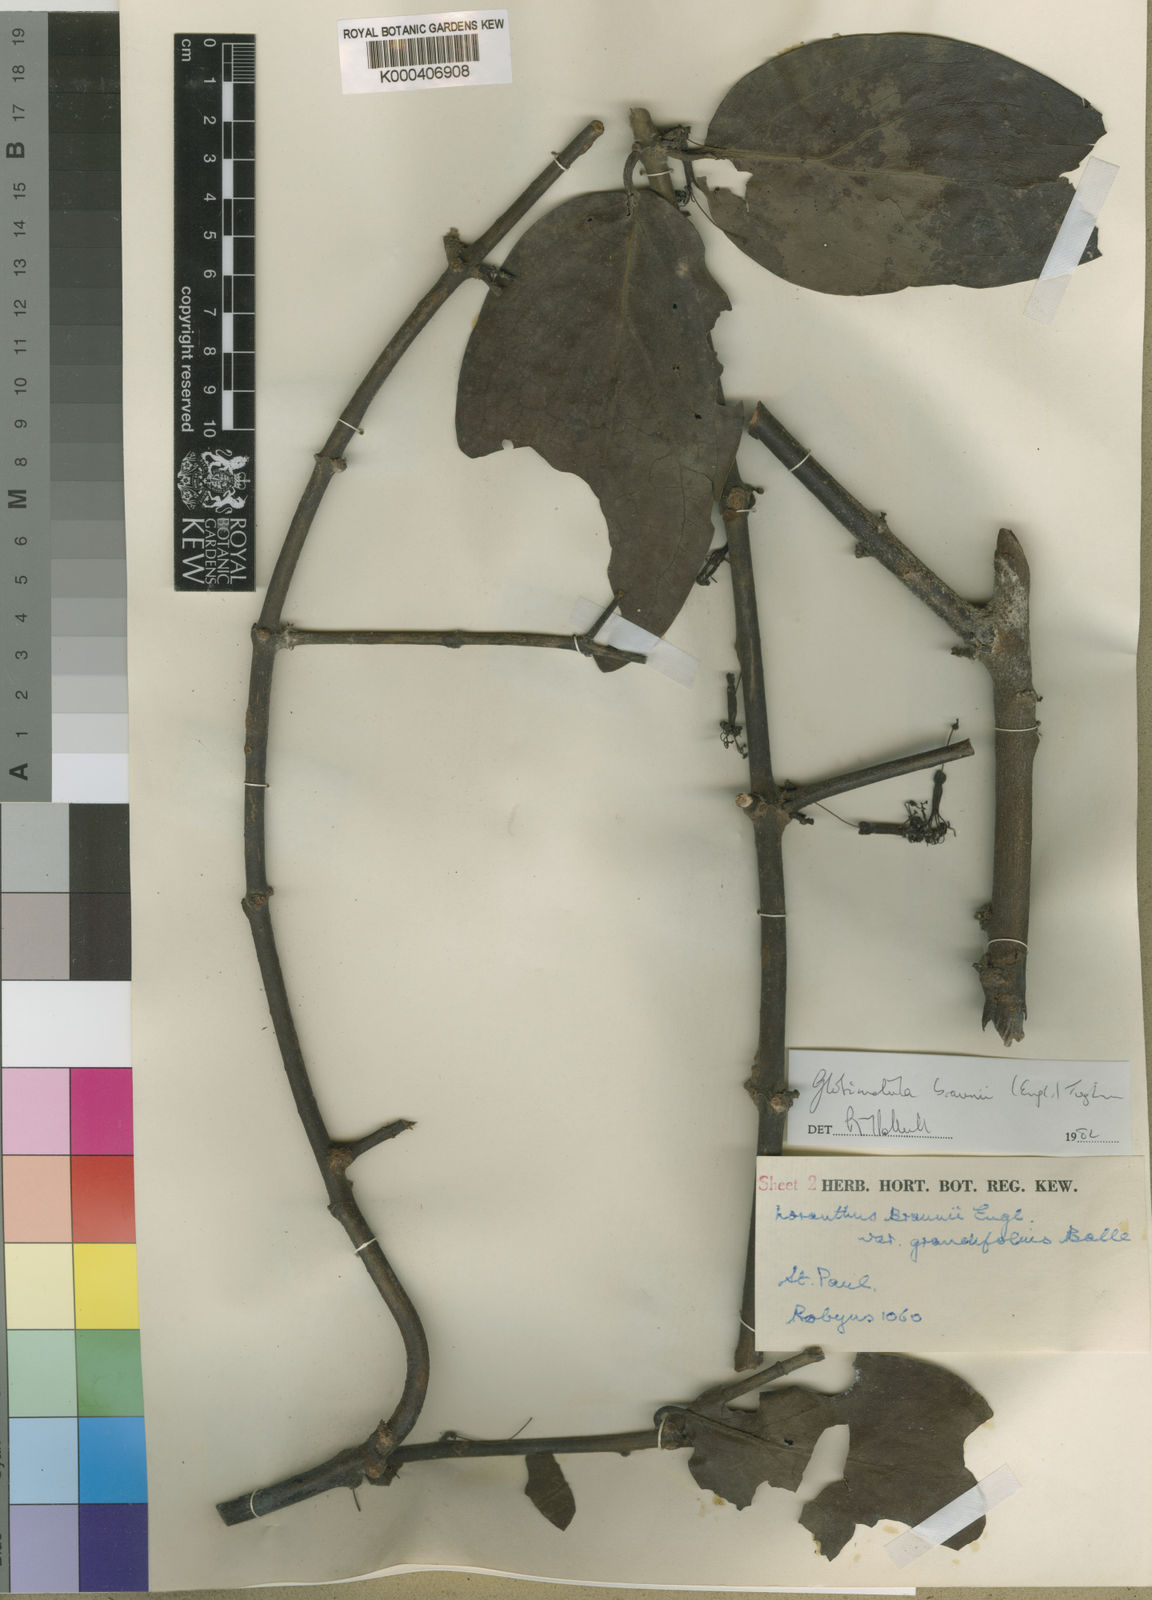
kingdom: Plantae
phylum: Tracheophyta
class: Magnoliopsida
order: Santalales
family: Loranthaceae
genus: Globimetula
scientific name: Globimetula braunii
